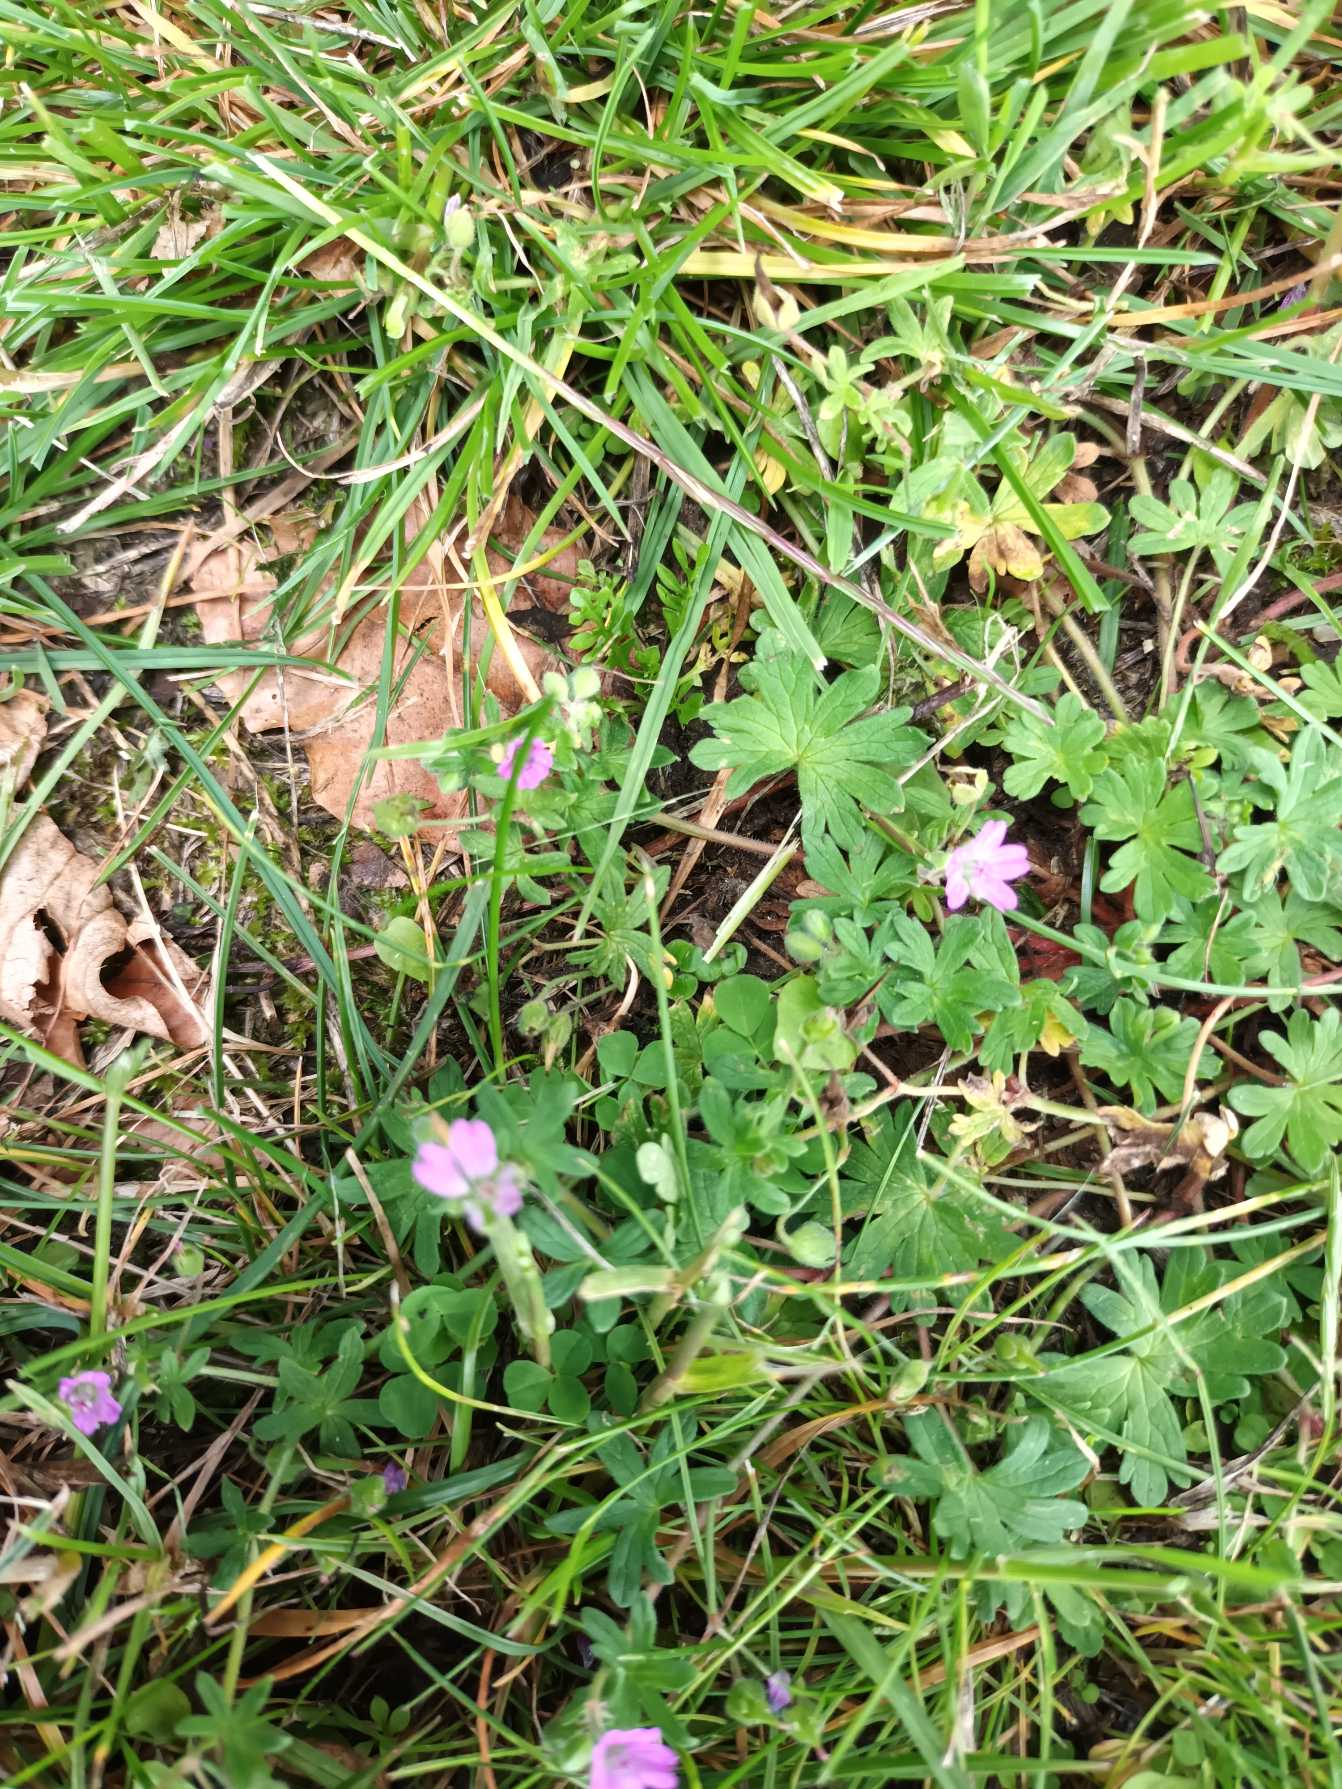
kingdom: Plantae
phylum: Tracheophyta
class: Magnoliopsida
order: Geraniales
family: Geraniaceae
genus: Geranium
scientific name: Geranium molle
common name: Blød storkenæb
